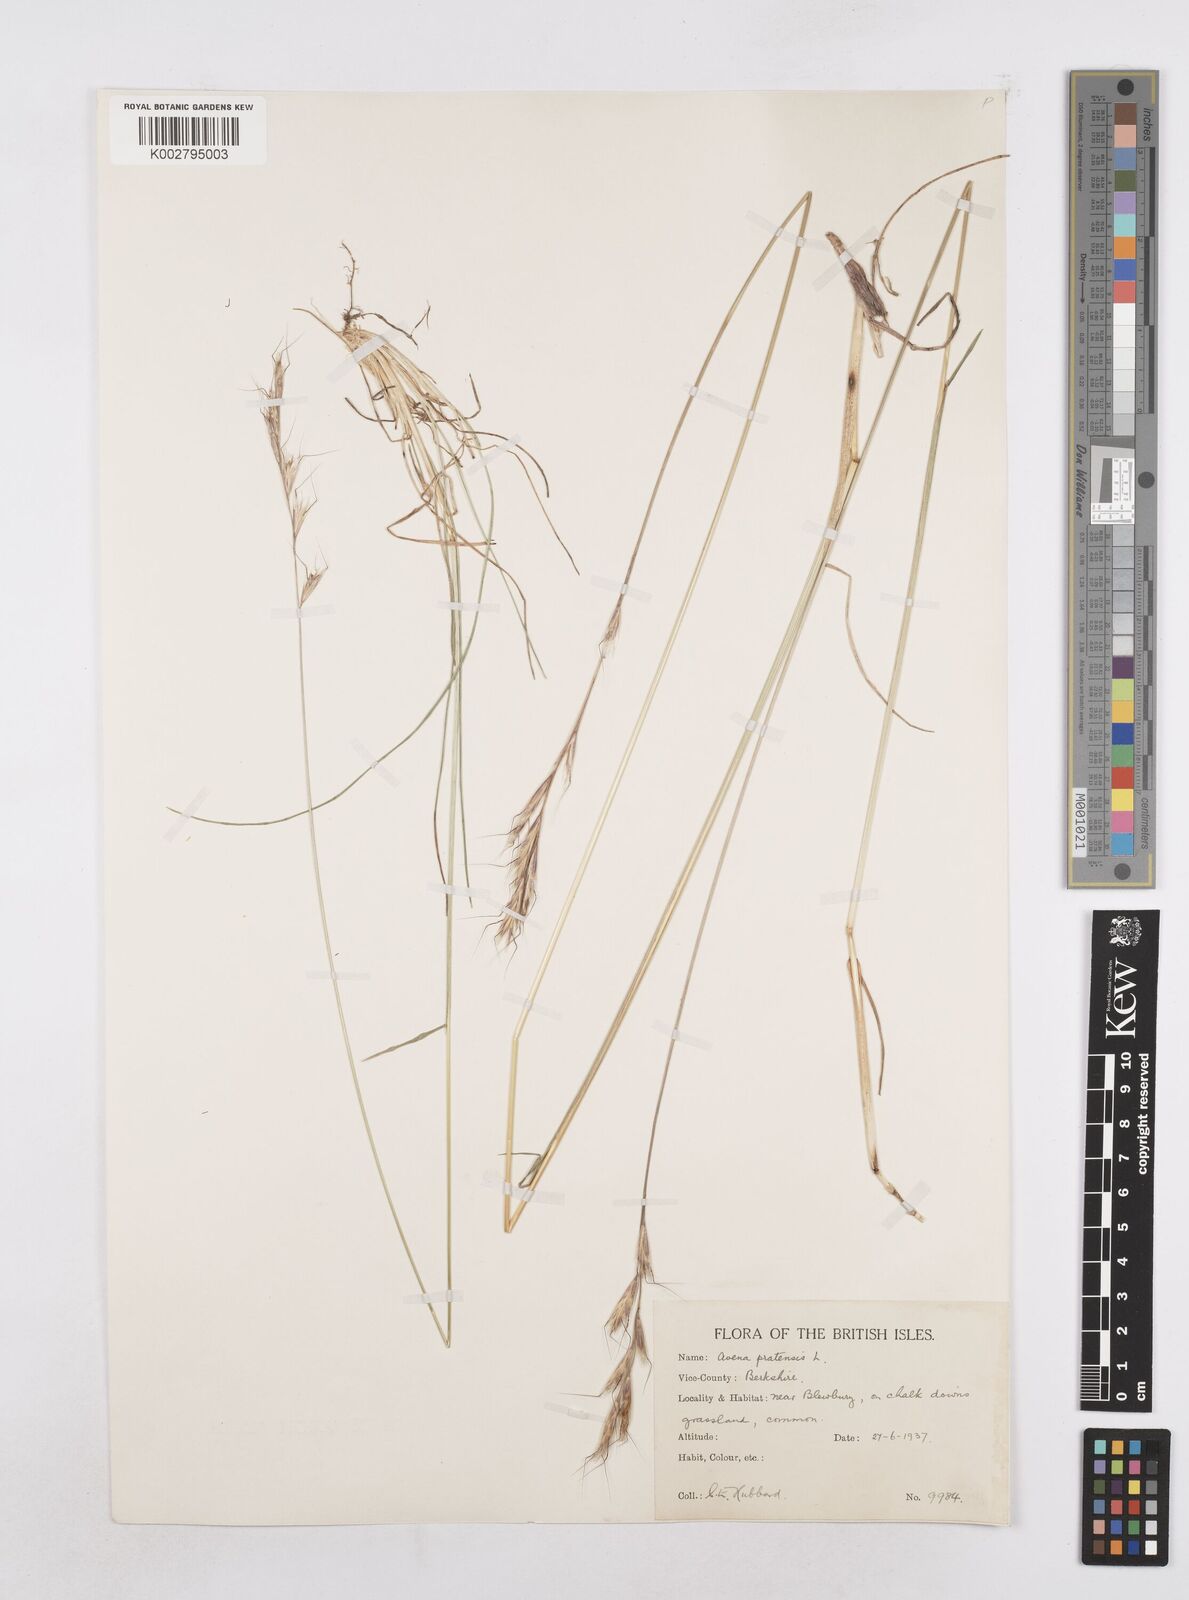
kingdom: Plantae
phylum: Tracheophyta
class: Liliopsida
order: Poales
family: Poaceae
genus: Helictochloa
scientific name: Helictochloa pratensis
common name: Meadow oat grass
